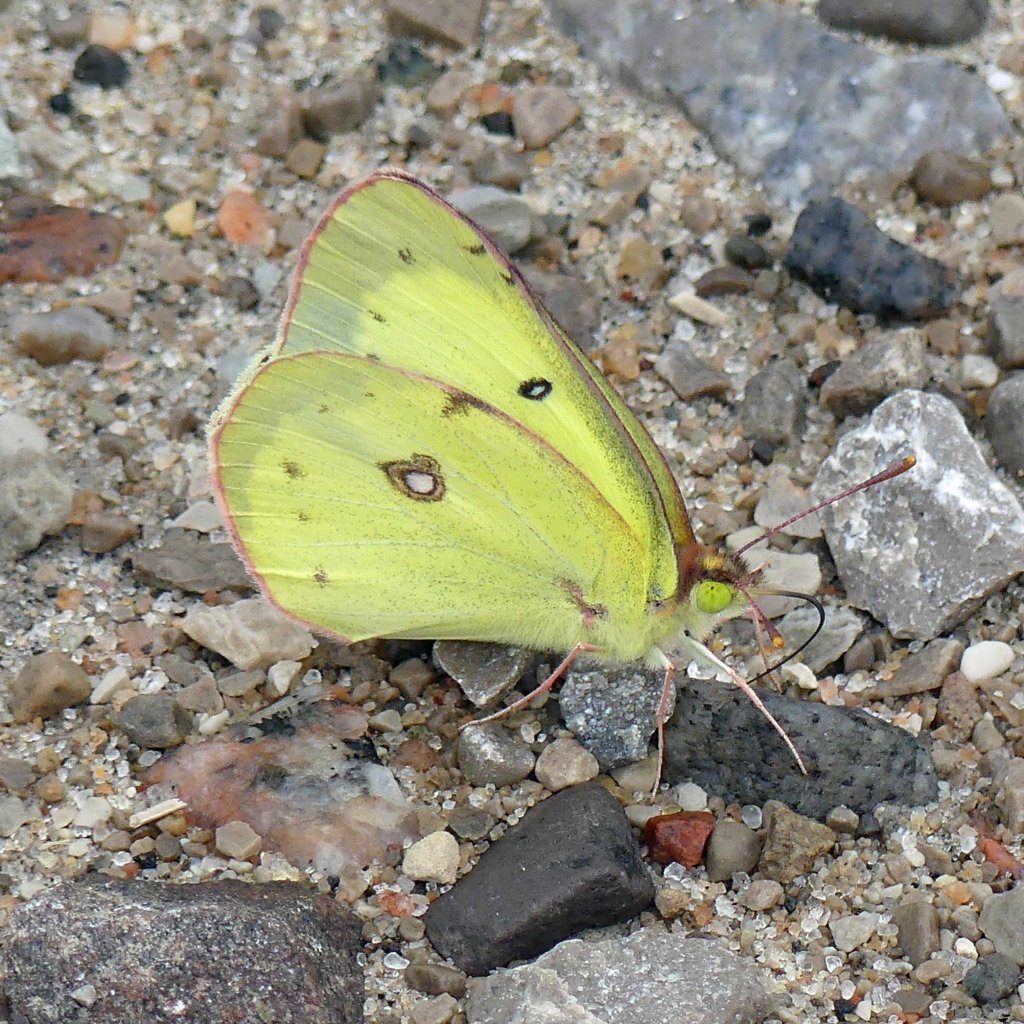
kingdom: Animalia
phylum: Arthropoda
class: Insecta
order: Lepidoptera
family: Pieridae
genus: Colias
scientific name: Colias philodice
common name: Clouded Sulphur
